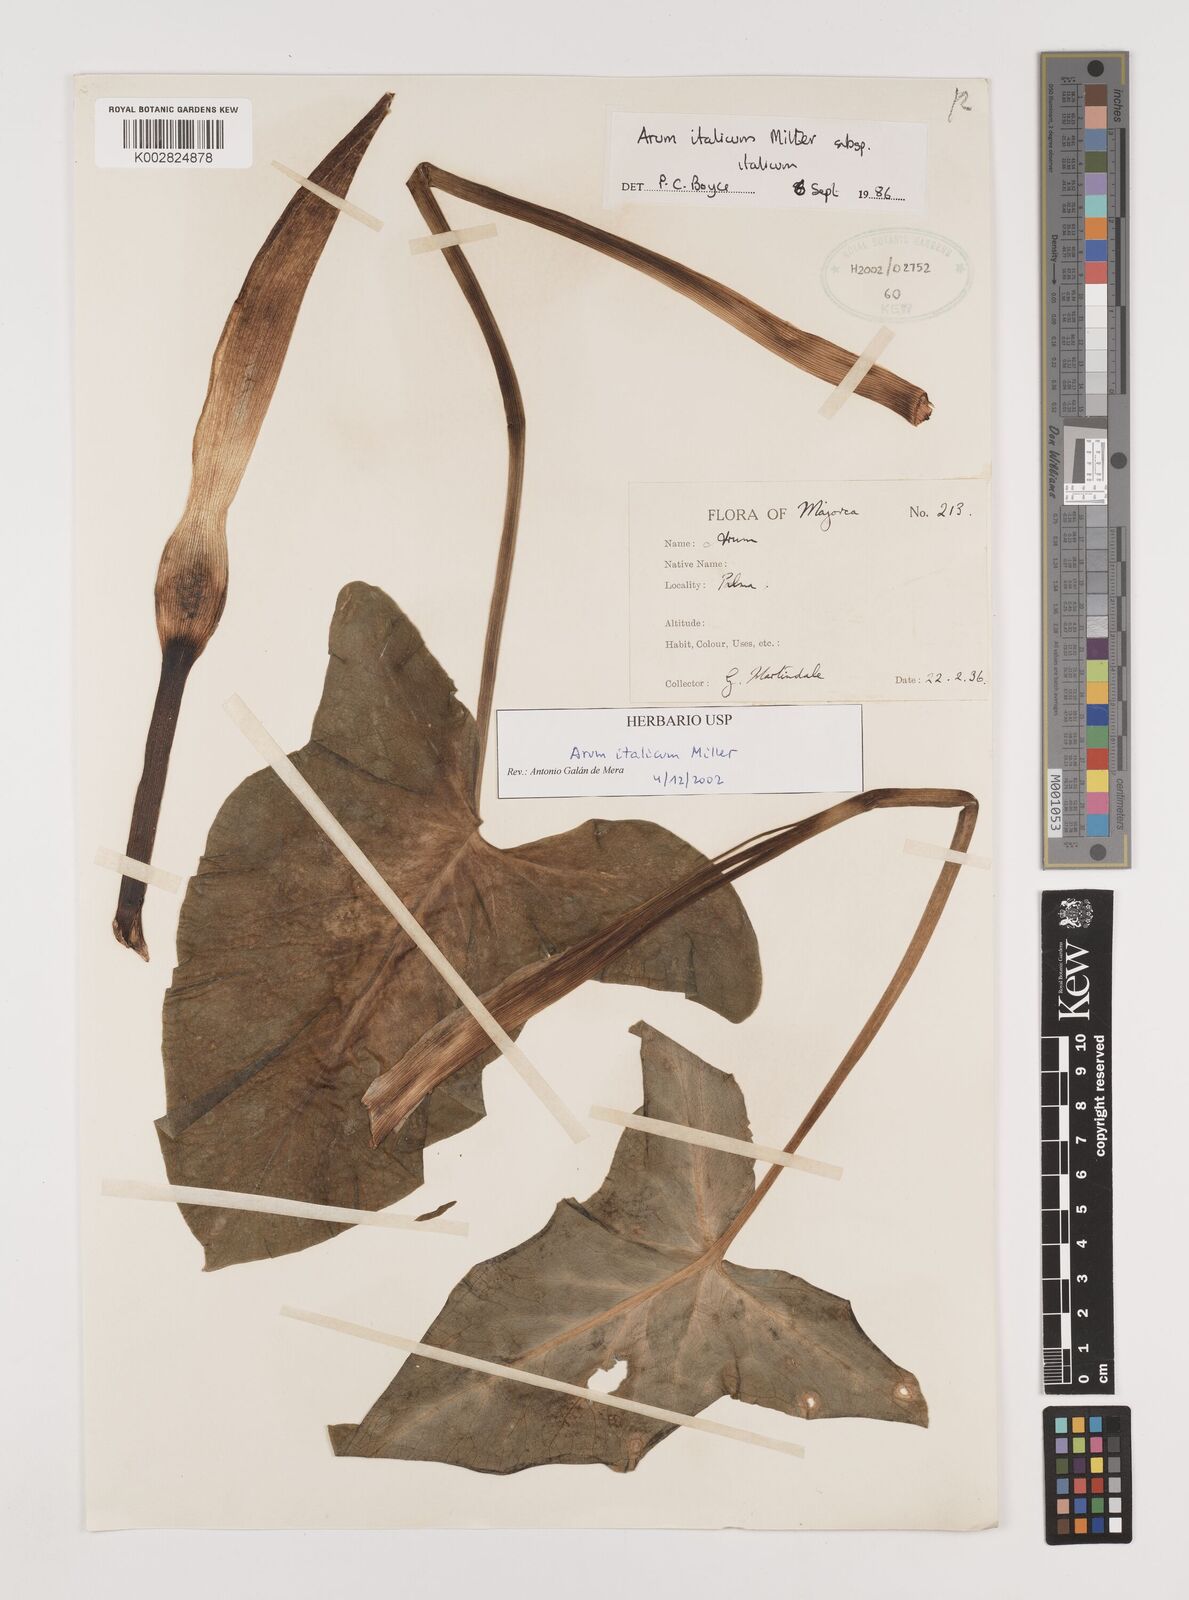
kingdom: Plantae
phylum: Tracheophyta
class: Liliopsida
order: Alismatales
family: Araceae
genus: Arum
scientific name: Arum italicum
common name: Italian lords-and-ladies
